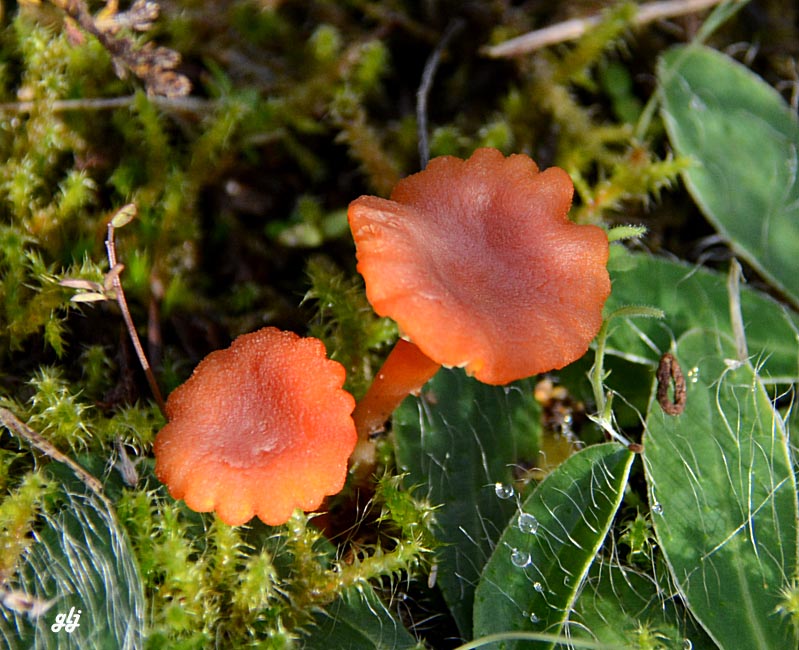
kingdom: Fungi
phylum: Basidiomycota
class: Agaricomycetes
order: Agaricales
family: Hygrophoraceae
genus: Hygrocybe
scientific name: Hygrocybe cantharellus
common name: kantarel-vokshat
